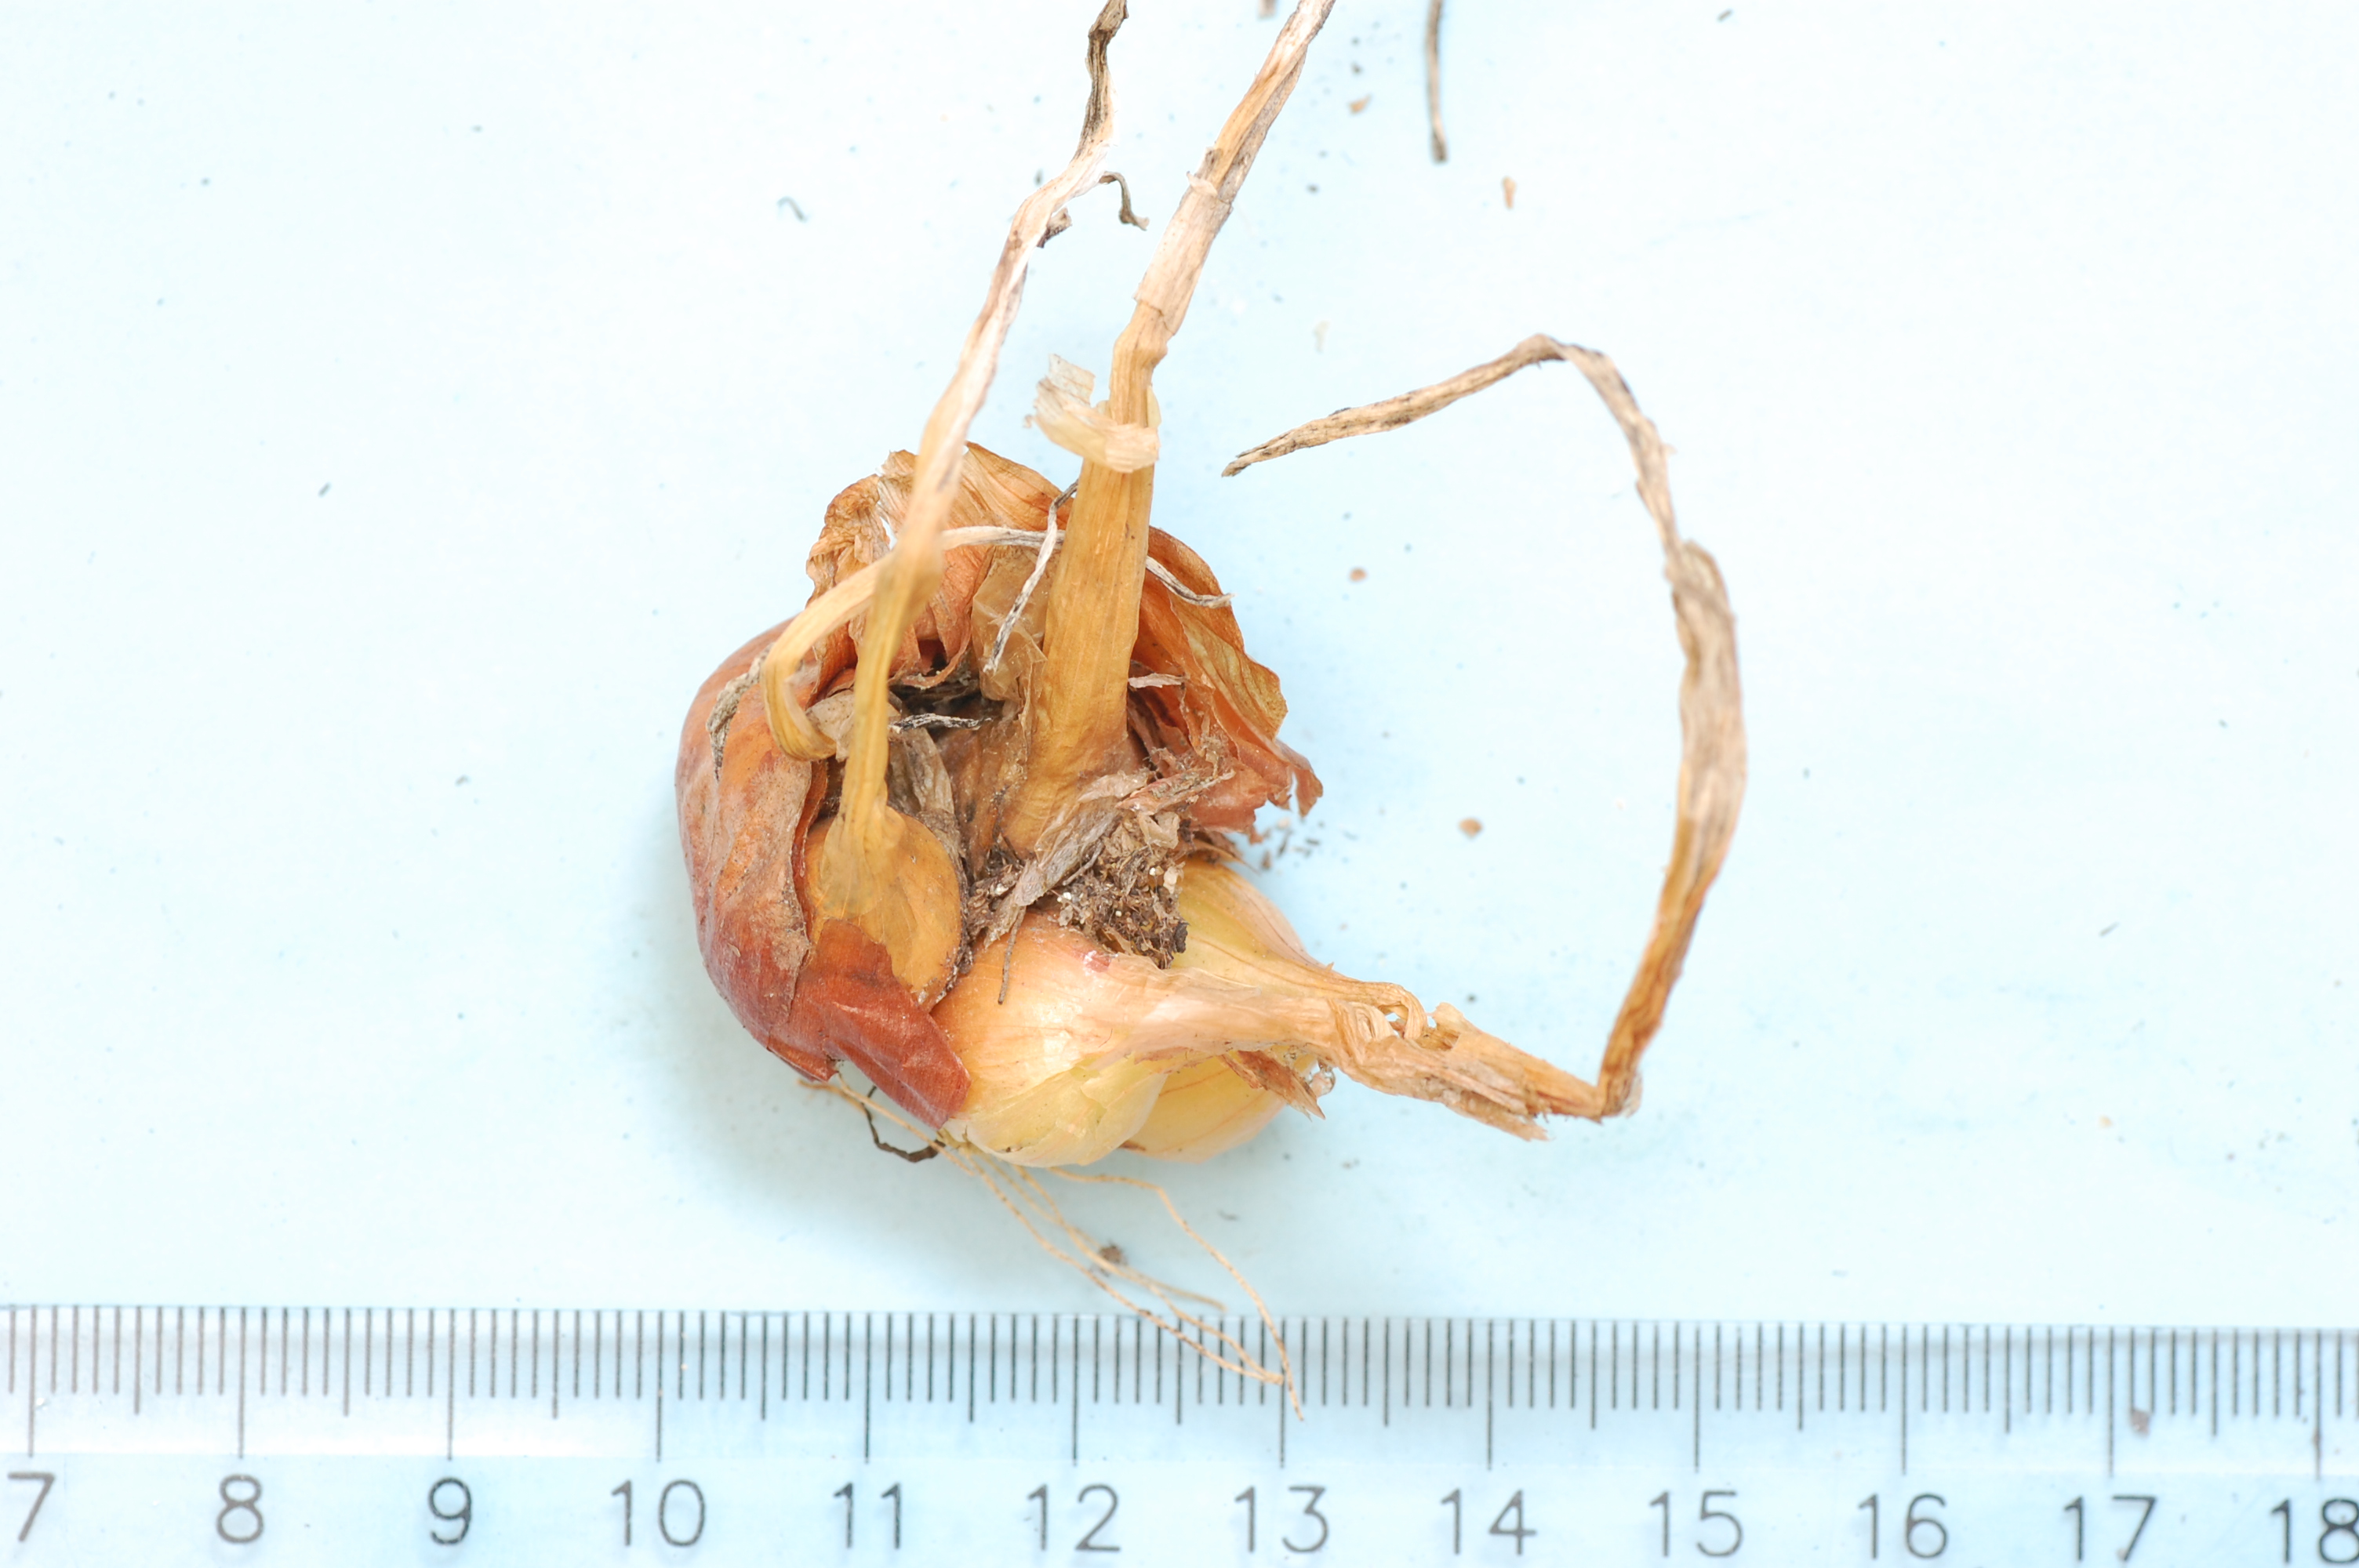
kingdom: Plantae
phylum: Tracheophyta
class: Liliopsida
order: Asparagales
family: Amaryllidaceae
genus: Allium
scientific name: Allium cepa
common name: Onion
